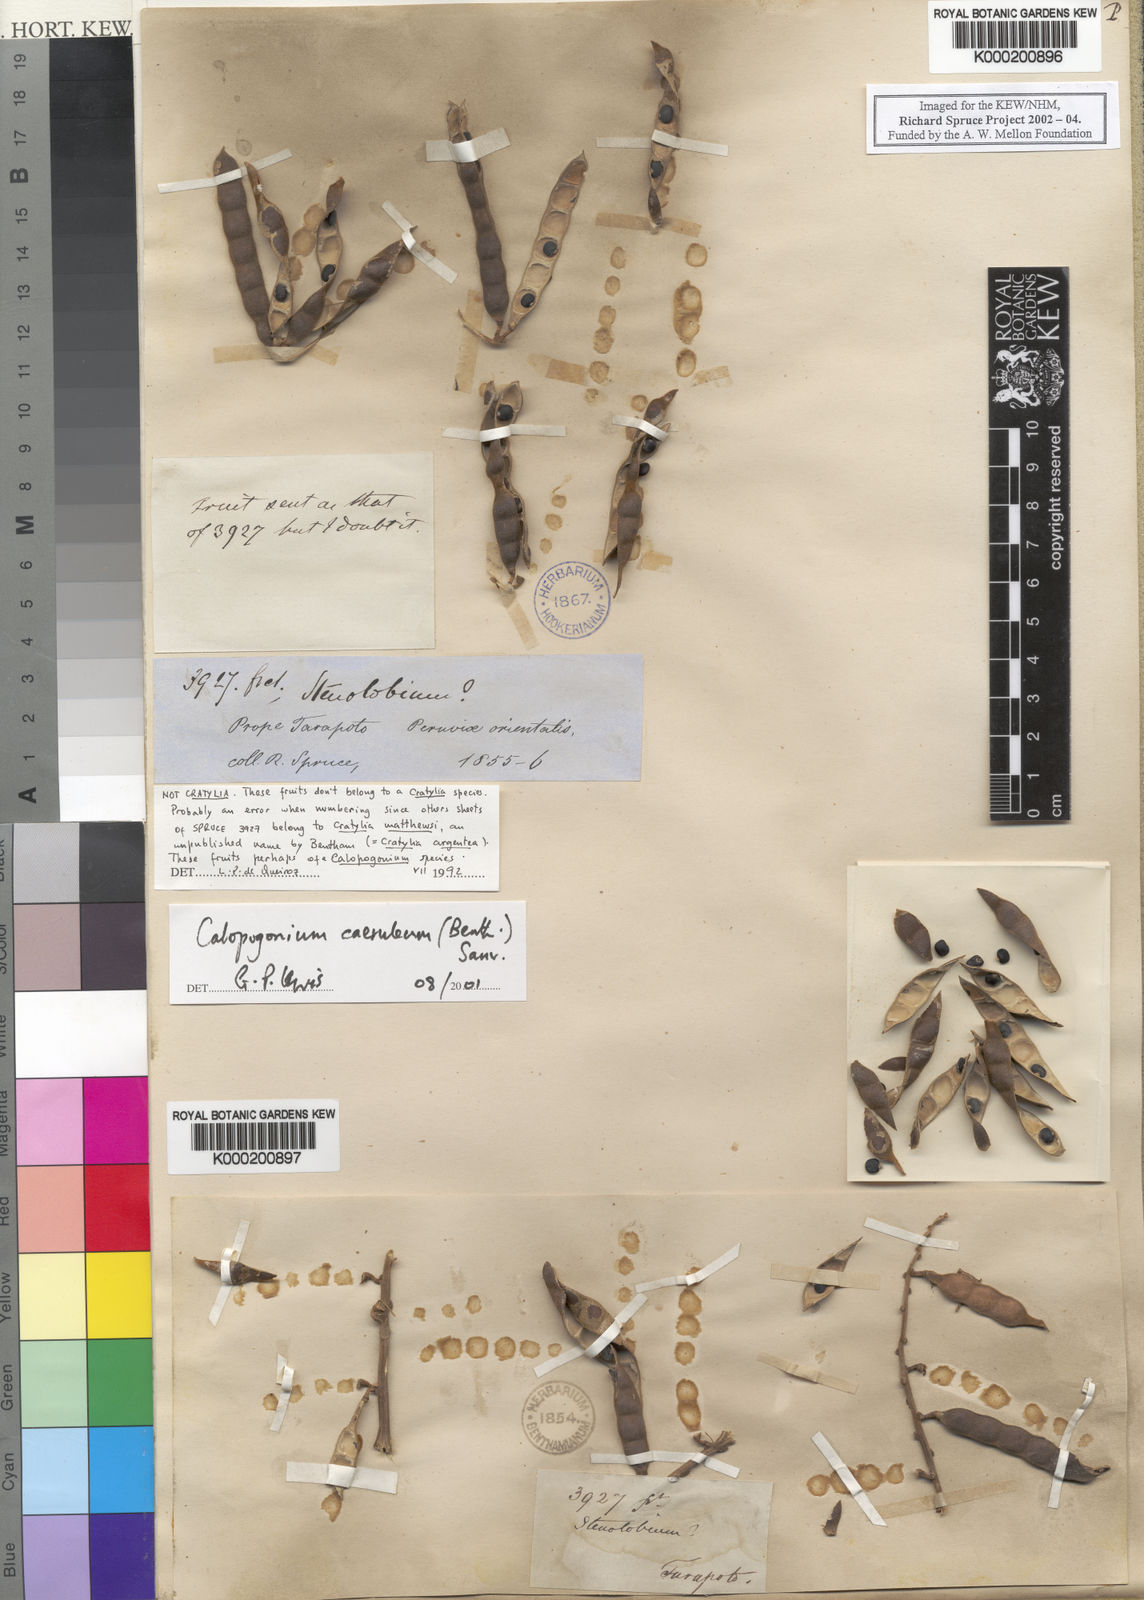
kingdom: Plantae
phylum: Tracheophyta
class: Magnoliopsida
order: Fabales
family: Fabaceae
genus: Calopogonium
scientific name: Calopogonium
